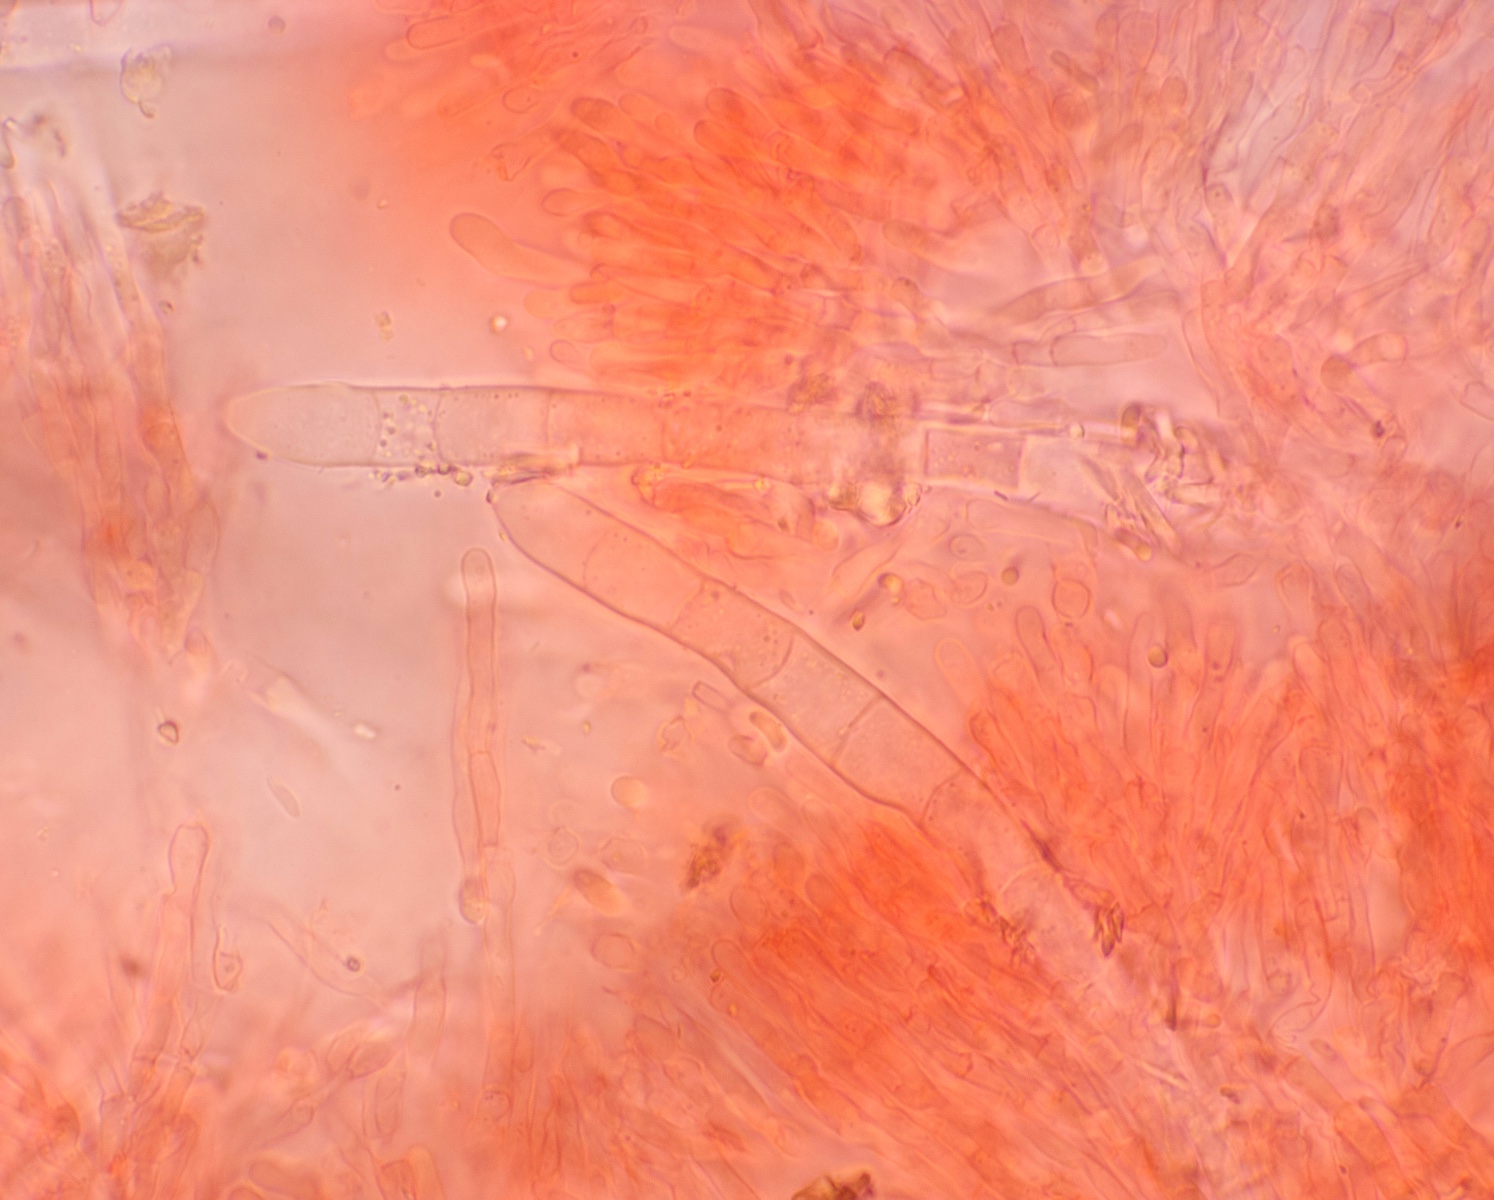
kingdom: Fungi
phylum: Basidiomycota
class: Agaricomycetes
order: Hymenochaetales
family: Rickenellaceae
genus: Odonticium
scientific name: Odonticium septocystidia
